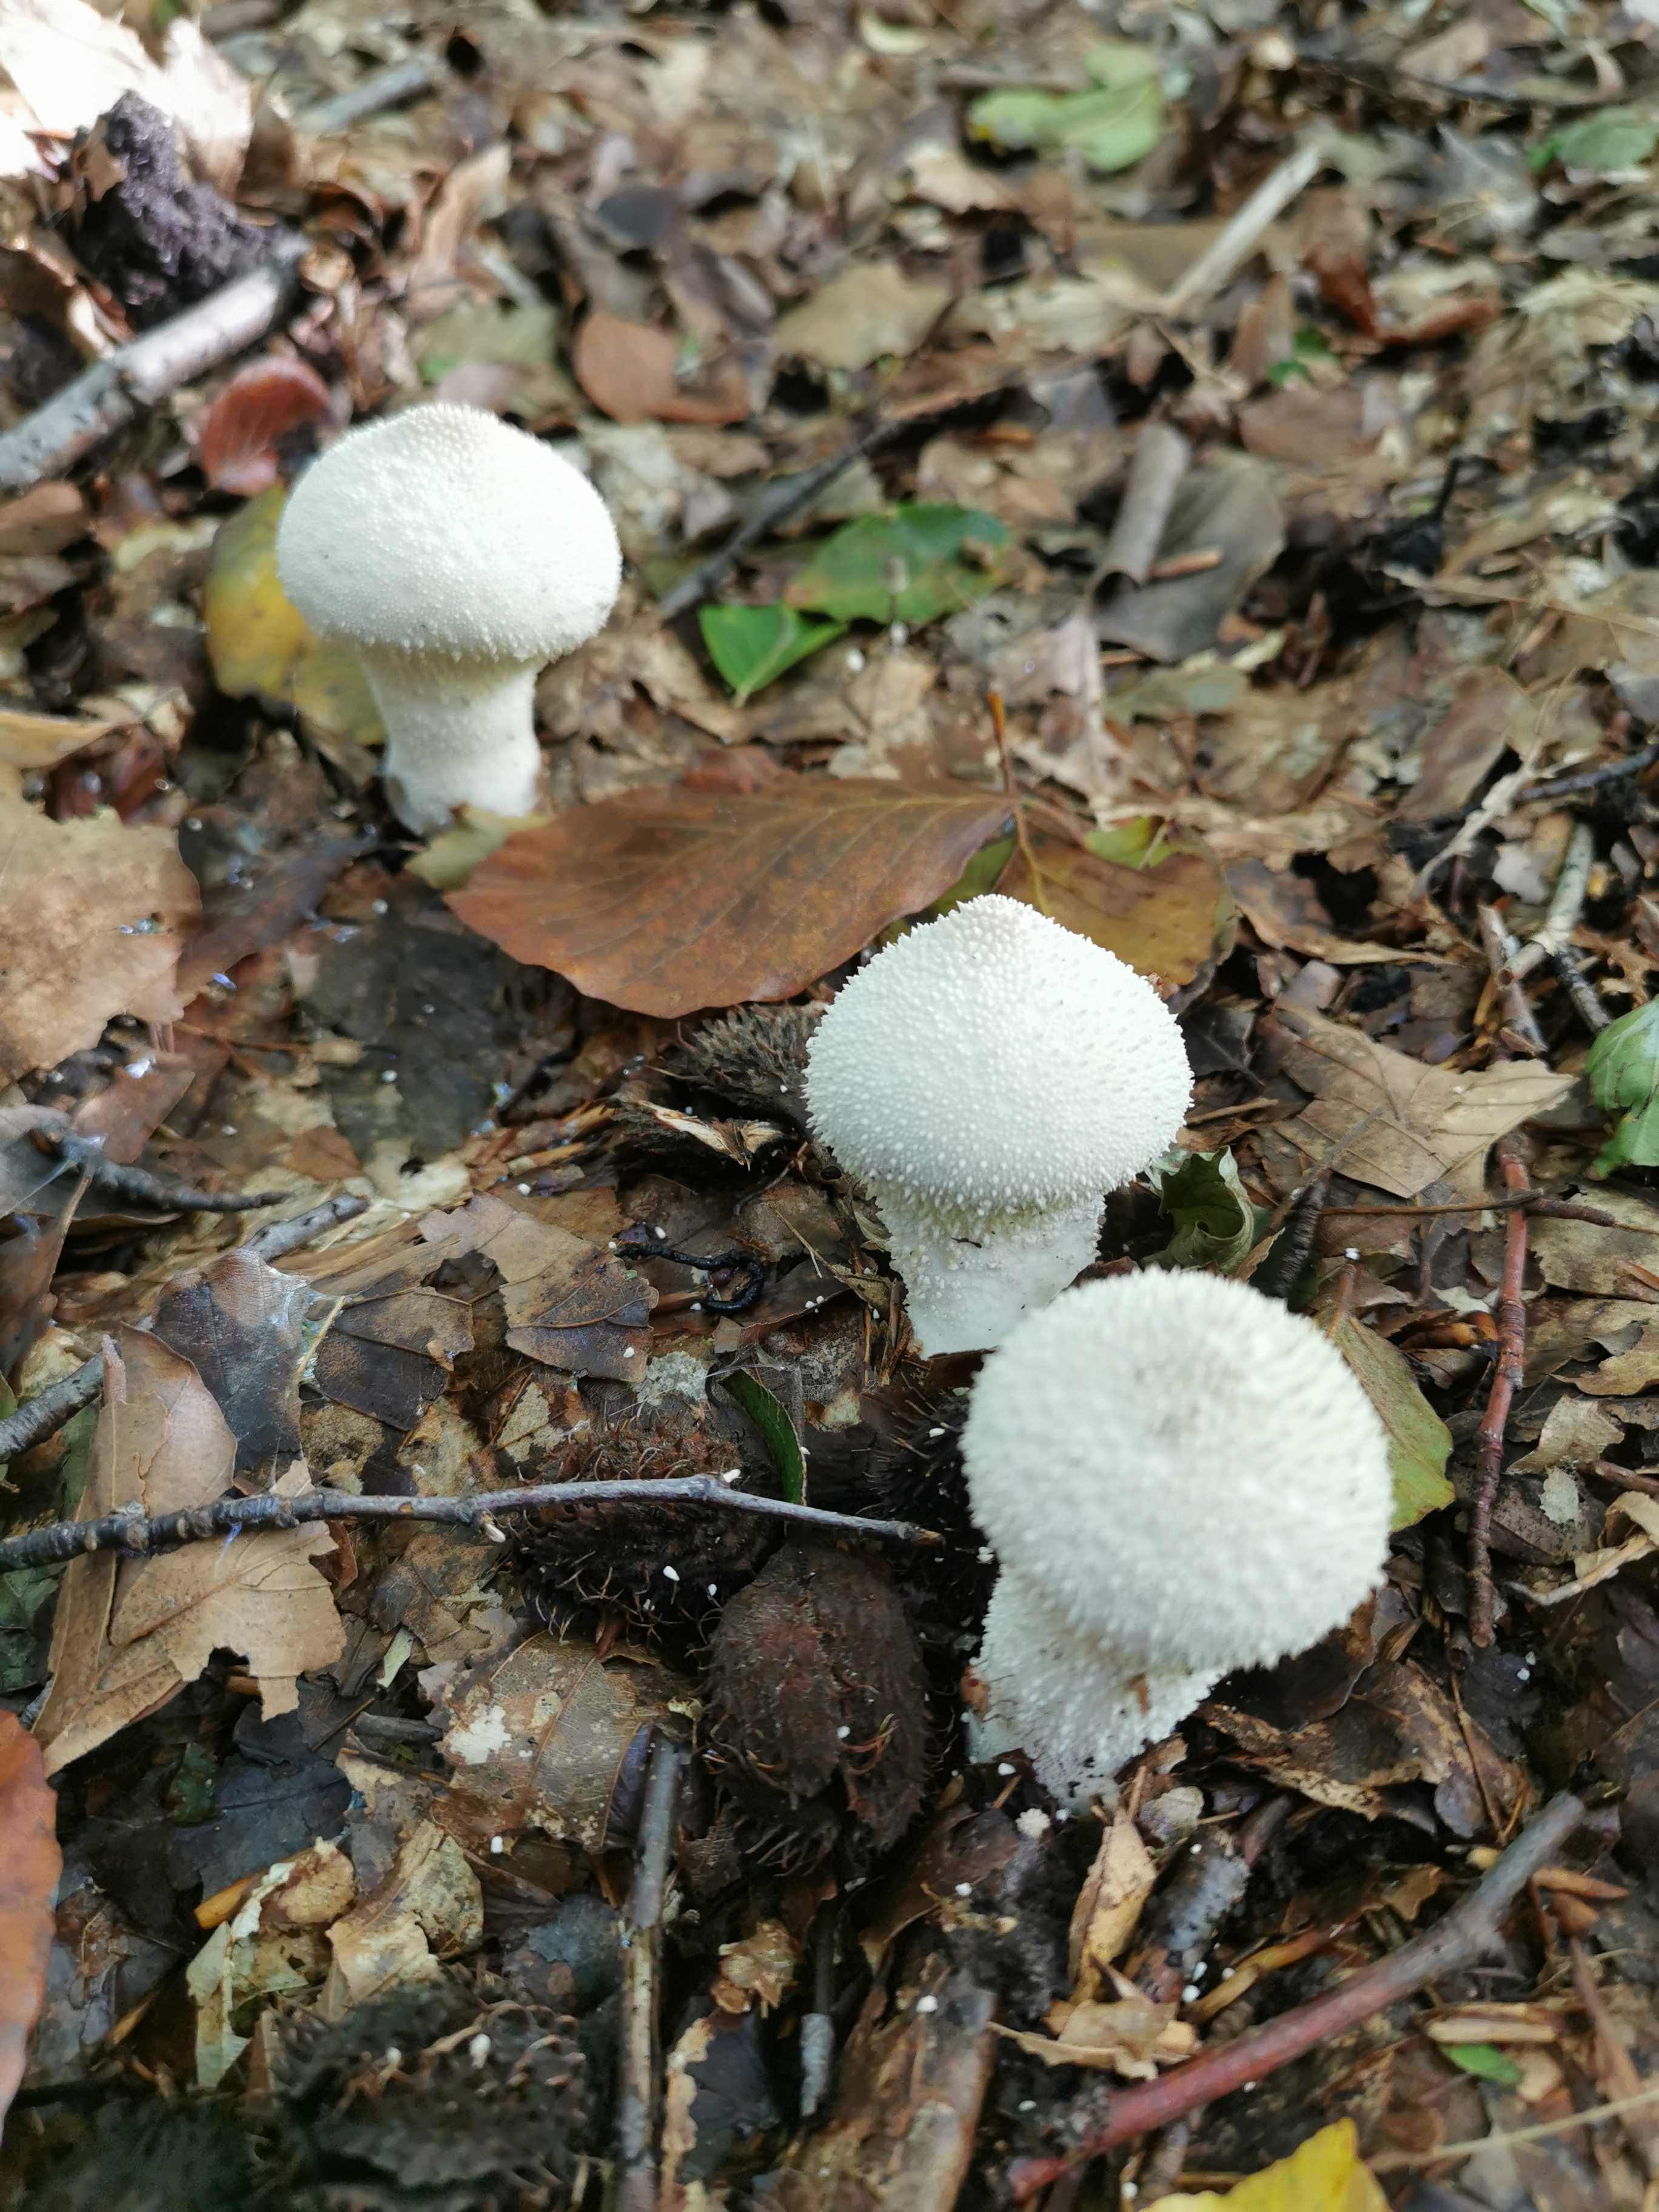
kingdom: Fungi
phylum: Basidiomycota
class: Agaricomycetes
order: Agaricales
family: Lycoperdaceae
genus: Lycoperdon
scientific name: Lycoperdon perlatum
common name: krystal-støvbold
